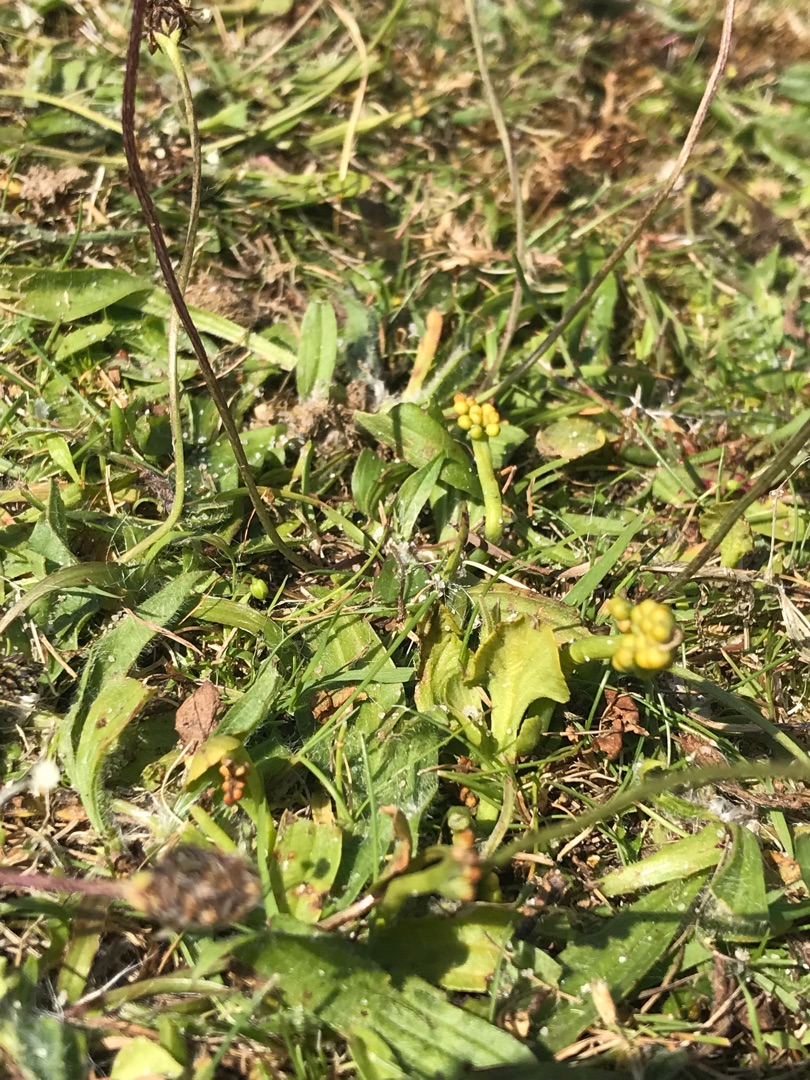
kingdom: Plantae
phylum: Tracheophyta
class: Polypodiopsida
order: Ophioglossales
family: Ophioglossaceae
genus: Botrychium
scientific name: Botrychium simplex
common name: Enkelt månerude
